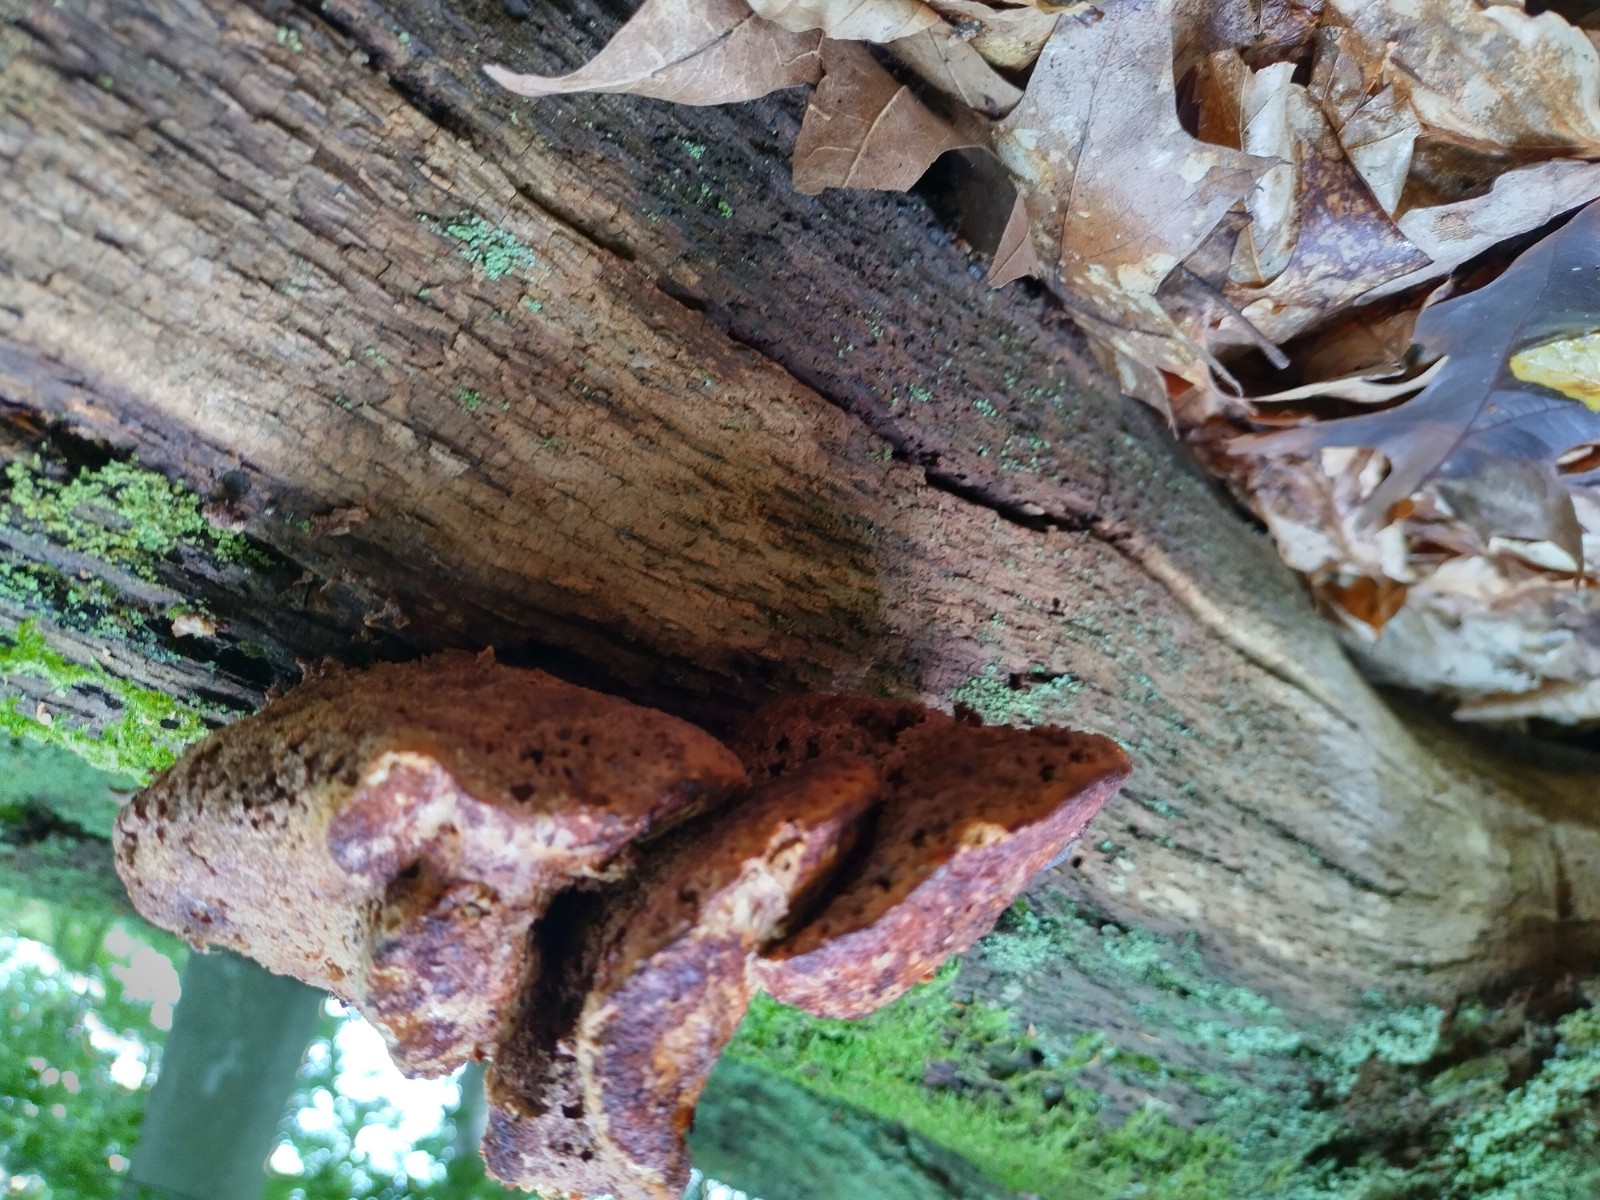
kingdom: Fungi
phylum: Basidiomycota
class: Agaricomycetes
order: Polyporales
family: Fomitopsidaceae
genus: Buglossoporus
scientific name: Buglossoporus quercinus
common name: egetunge
